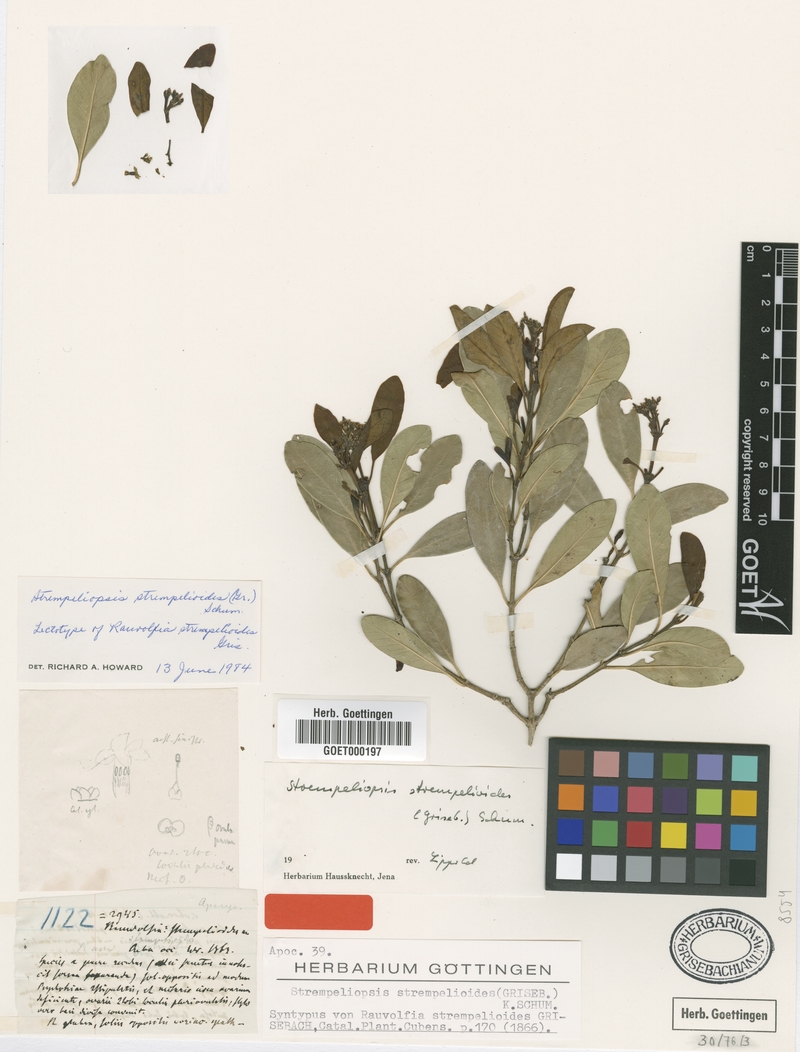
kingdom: Plantae
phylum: Tracheophyta
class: Magnoliopsida
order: Gentianales
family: Apocynaceae
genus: Strempeliopsis
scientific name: Strempeliopsis strempelioides
